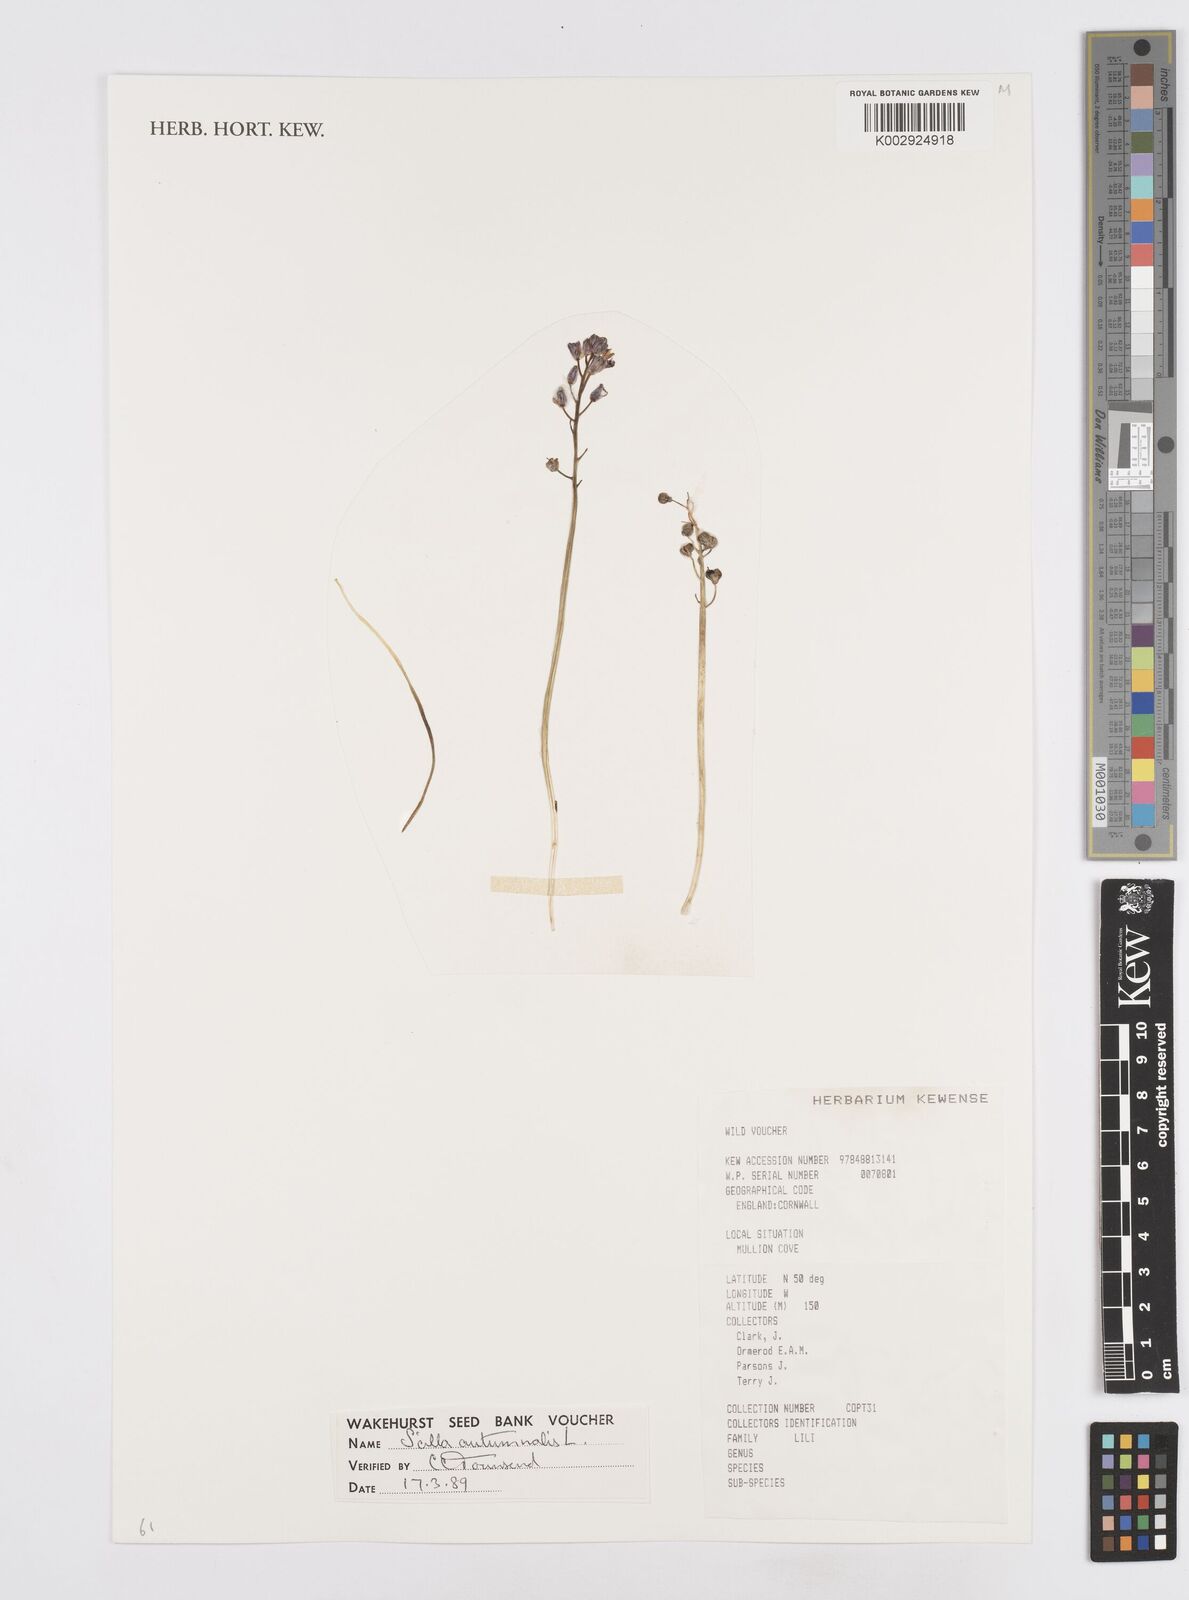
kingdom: Plantae
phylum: Tracheophyta
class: Liliopsida
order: Asparagales
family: Asparagaceae
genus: Prospero
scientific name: Prospero autumnale
